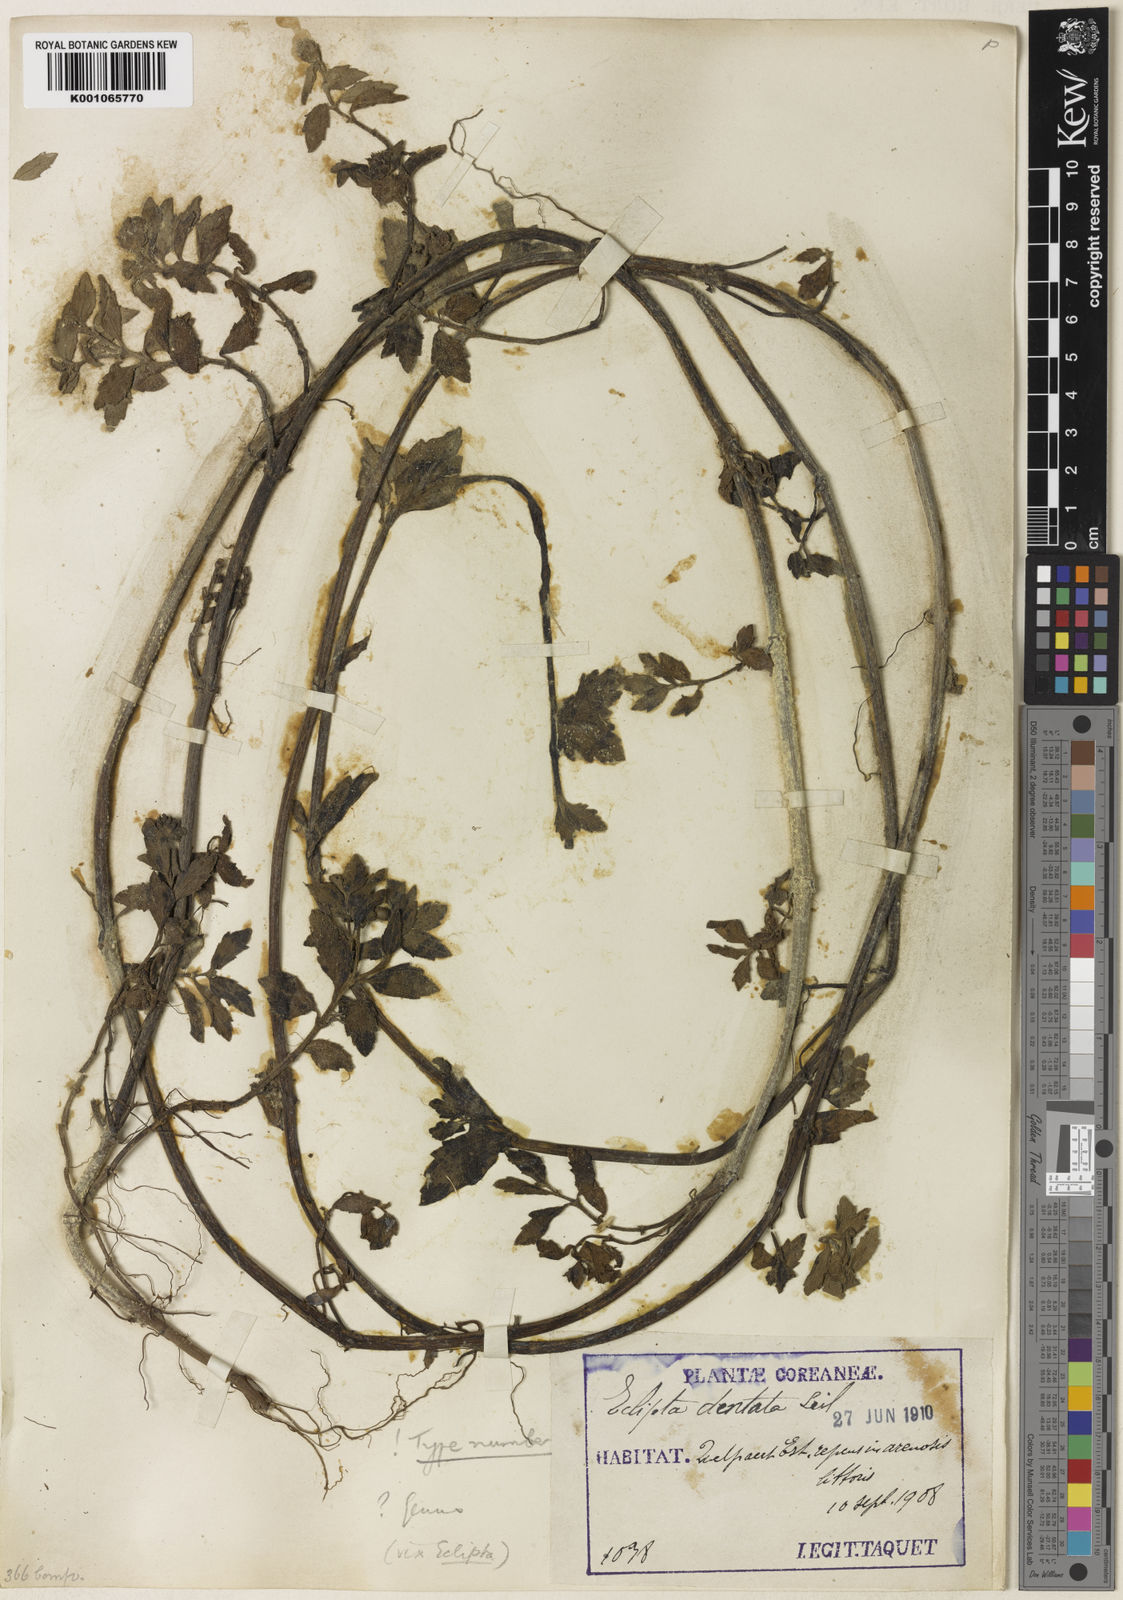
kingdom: Plantae
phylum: Tracheophyta
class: Magnoliopsida
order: Asterales
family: Asteraceae
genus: Eclipta
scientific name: Eclipta
